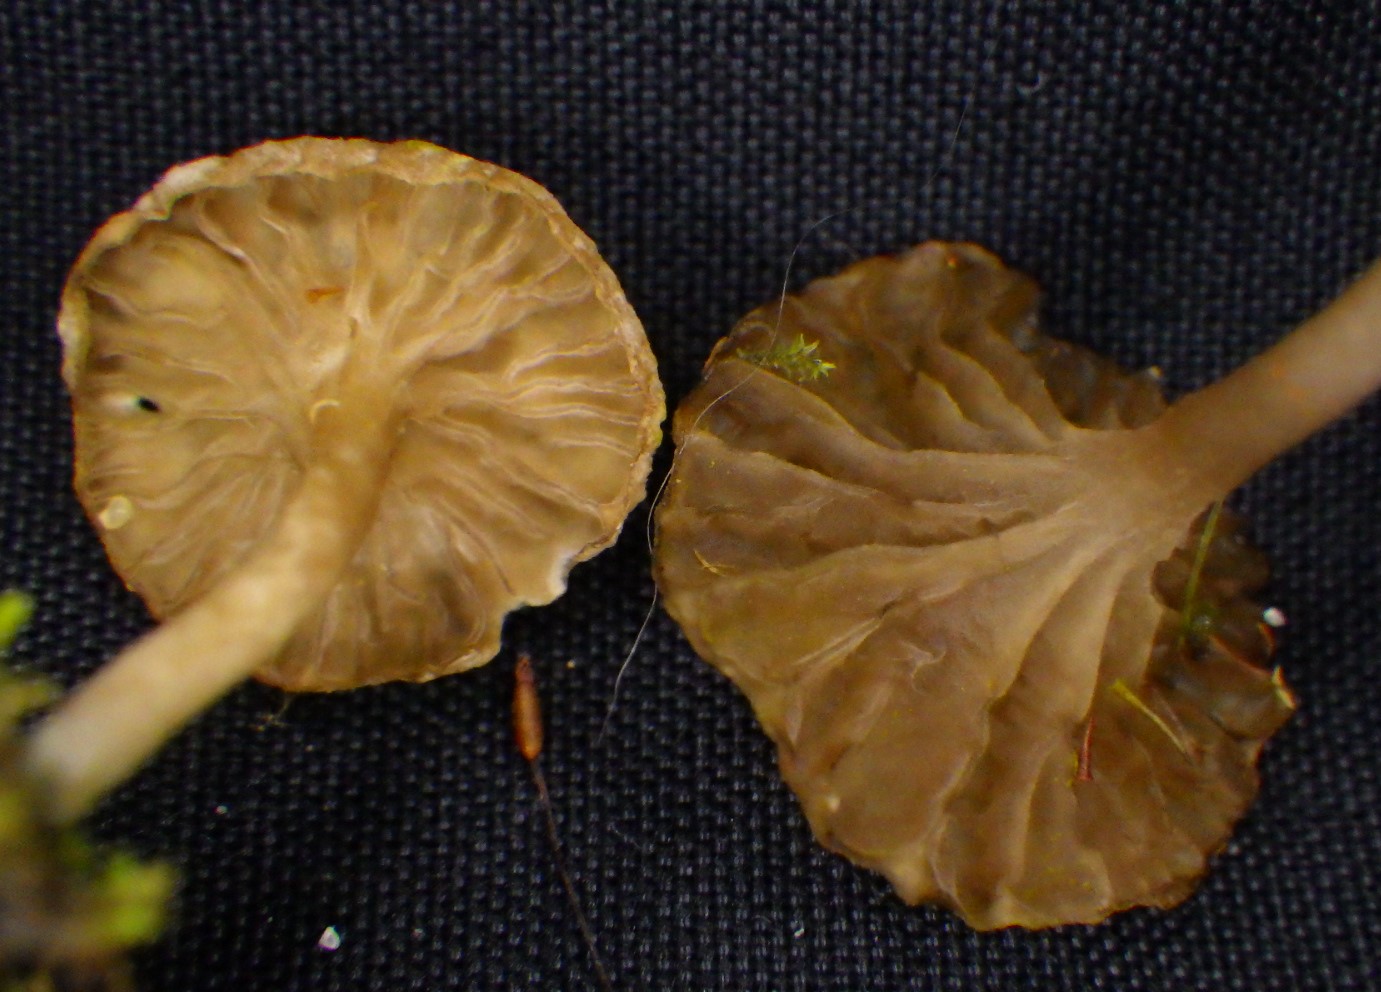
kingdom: Fungi
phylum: Basidiomycota
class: Agaricomycetes
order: Agaricales
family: Hygrophoraceae
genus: Arrhenia
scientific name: Arrhenia elegans
